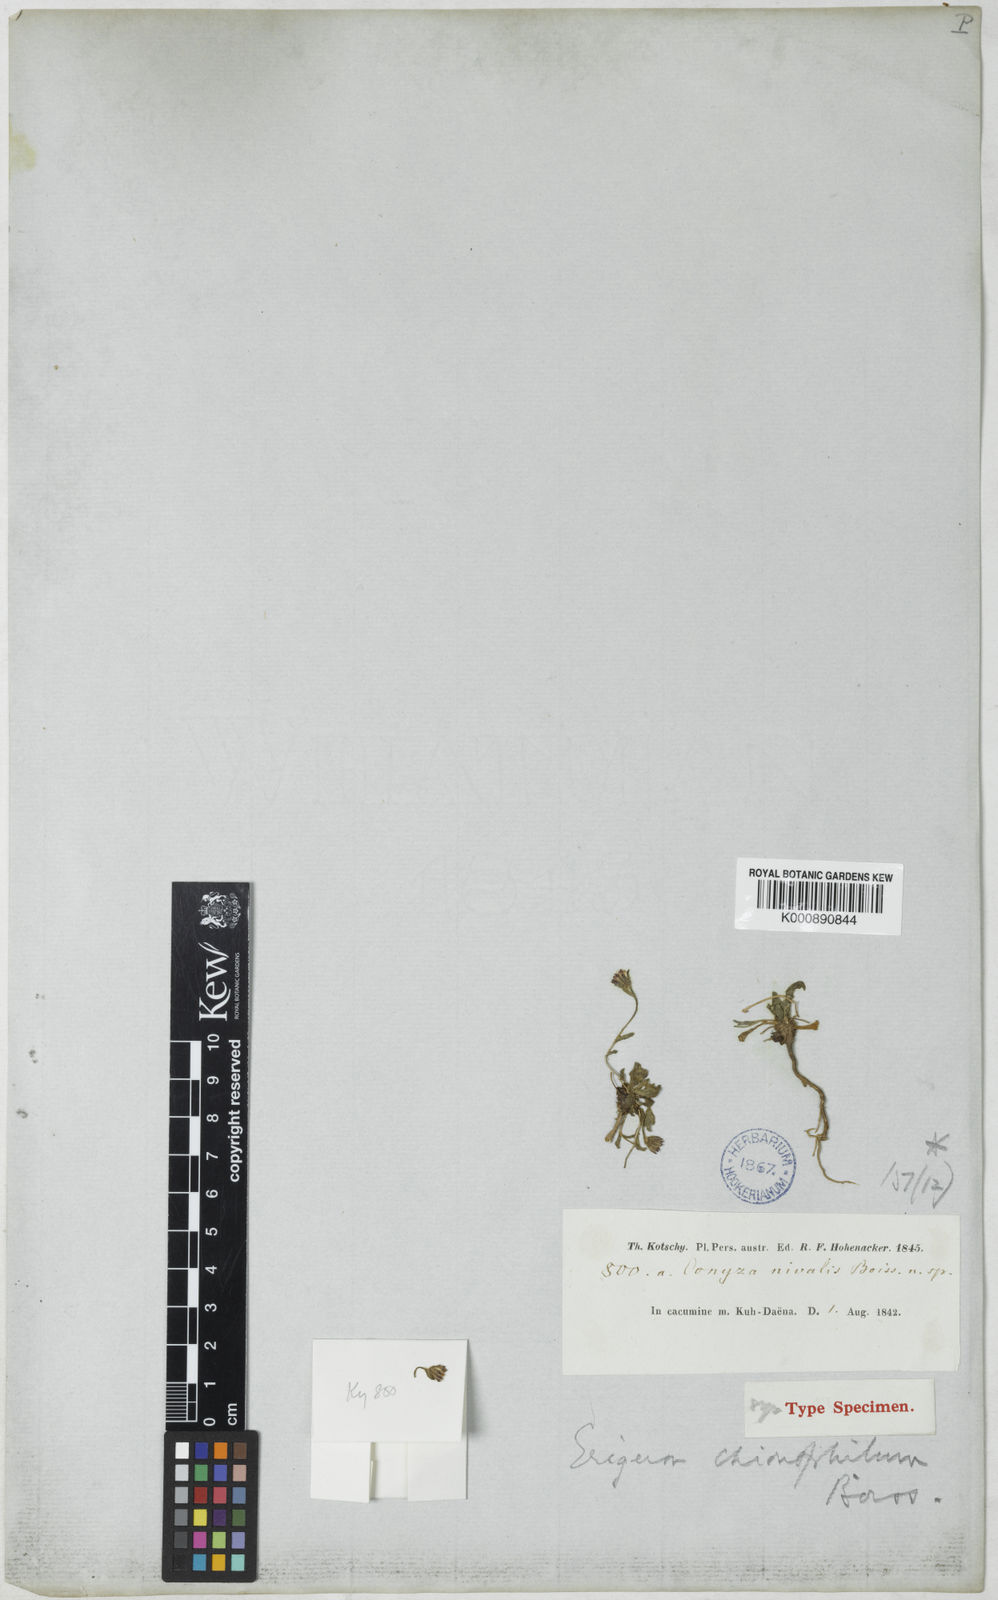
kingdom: Plantae
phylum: Tracheophyta
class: Magnoliopsida
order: Asterales
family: Asteraceae
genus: Psychrogeton
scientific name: Psychrogeton chionophilus
